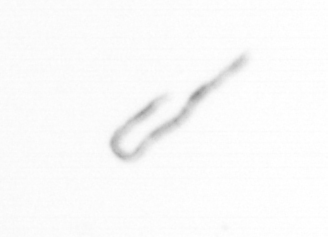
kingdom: Chromista
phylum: Ochrophyta
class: Bacillariophyceae
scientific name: Bacillariophyceae
